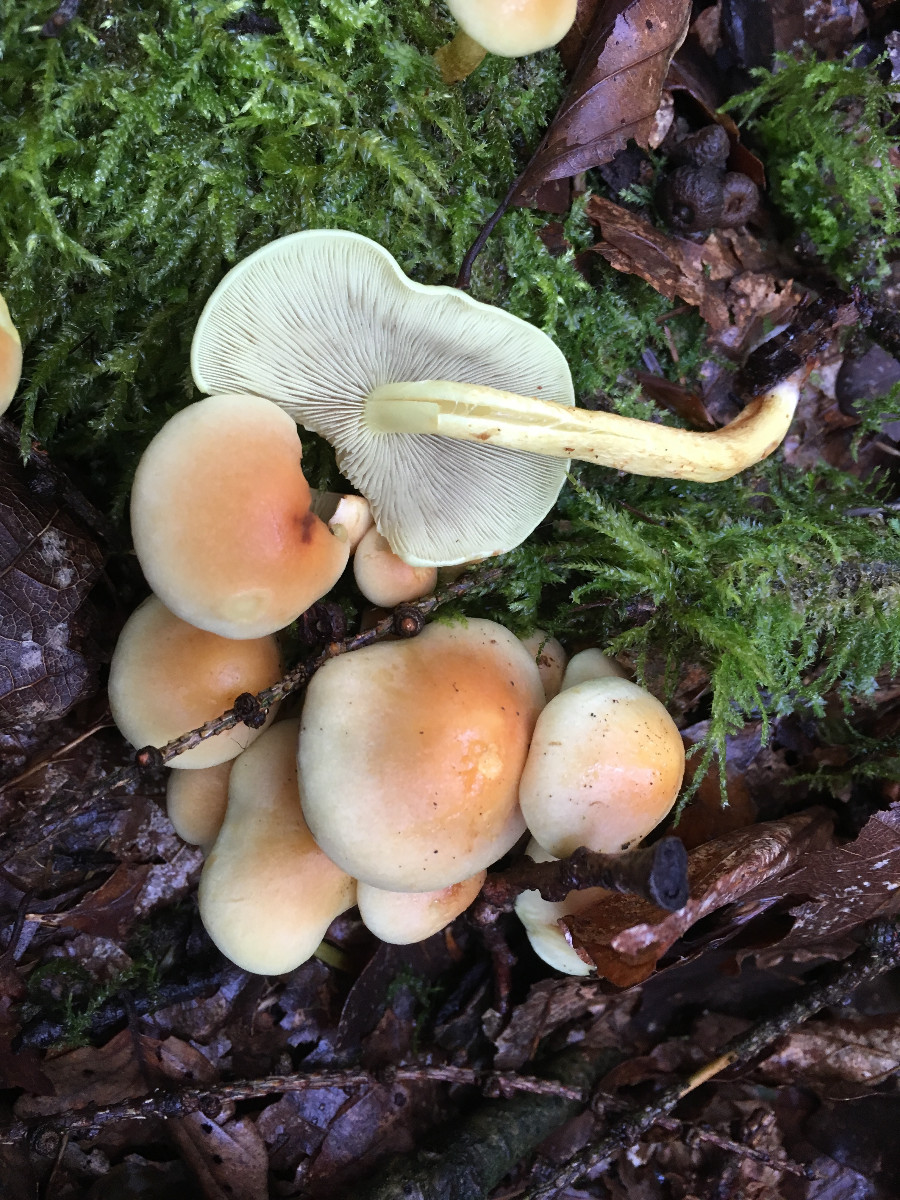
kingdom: Fungi
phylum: Basidiomycota
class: Agaricomycetes
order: Agaricales
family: Strophariaceae
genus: Hypholoma
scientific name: Hypholoma fasciculare
